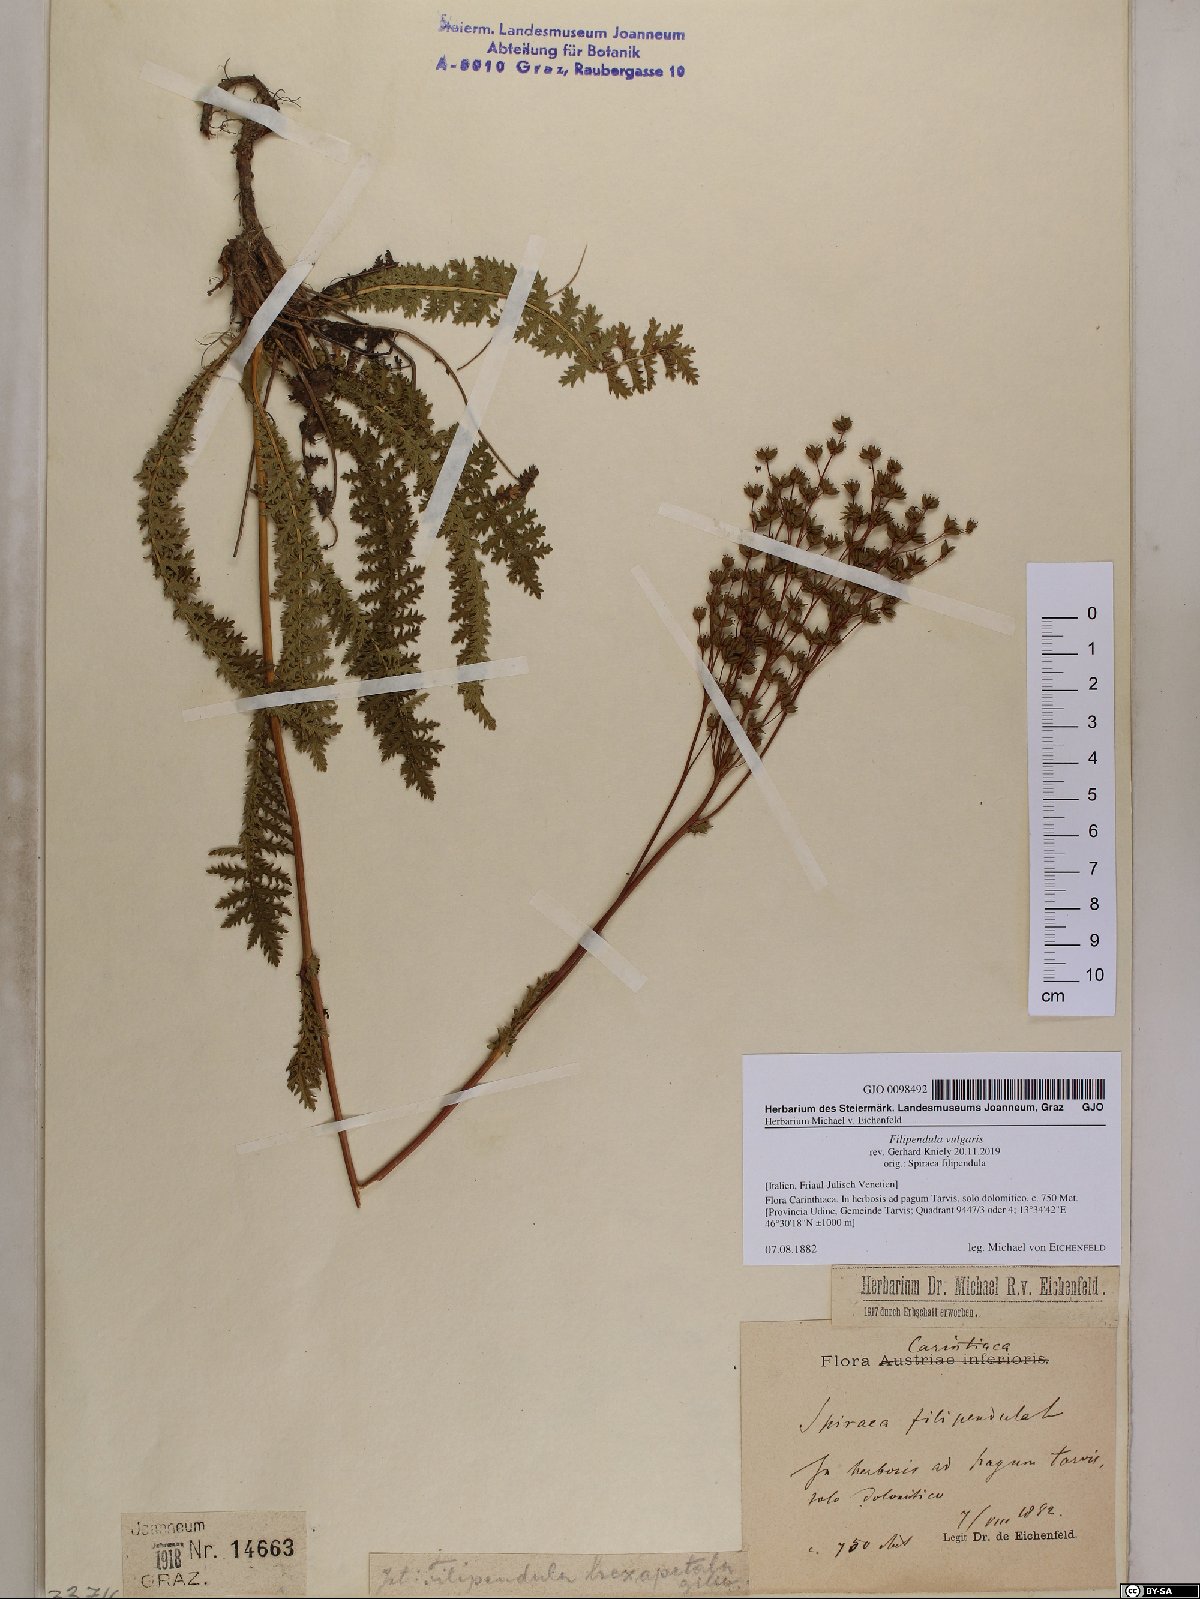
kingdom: Plantae
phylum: Tracheophyta
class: Magnoliopsida
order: Rosales
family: Rosaceae
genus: Filipendula
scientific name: Filipendula vulgaris
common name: Dropwort
